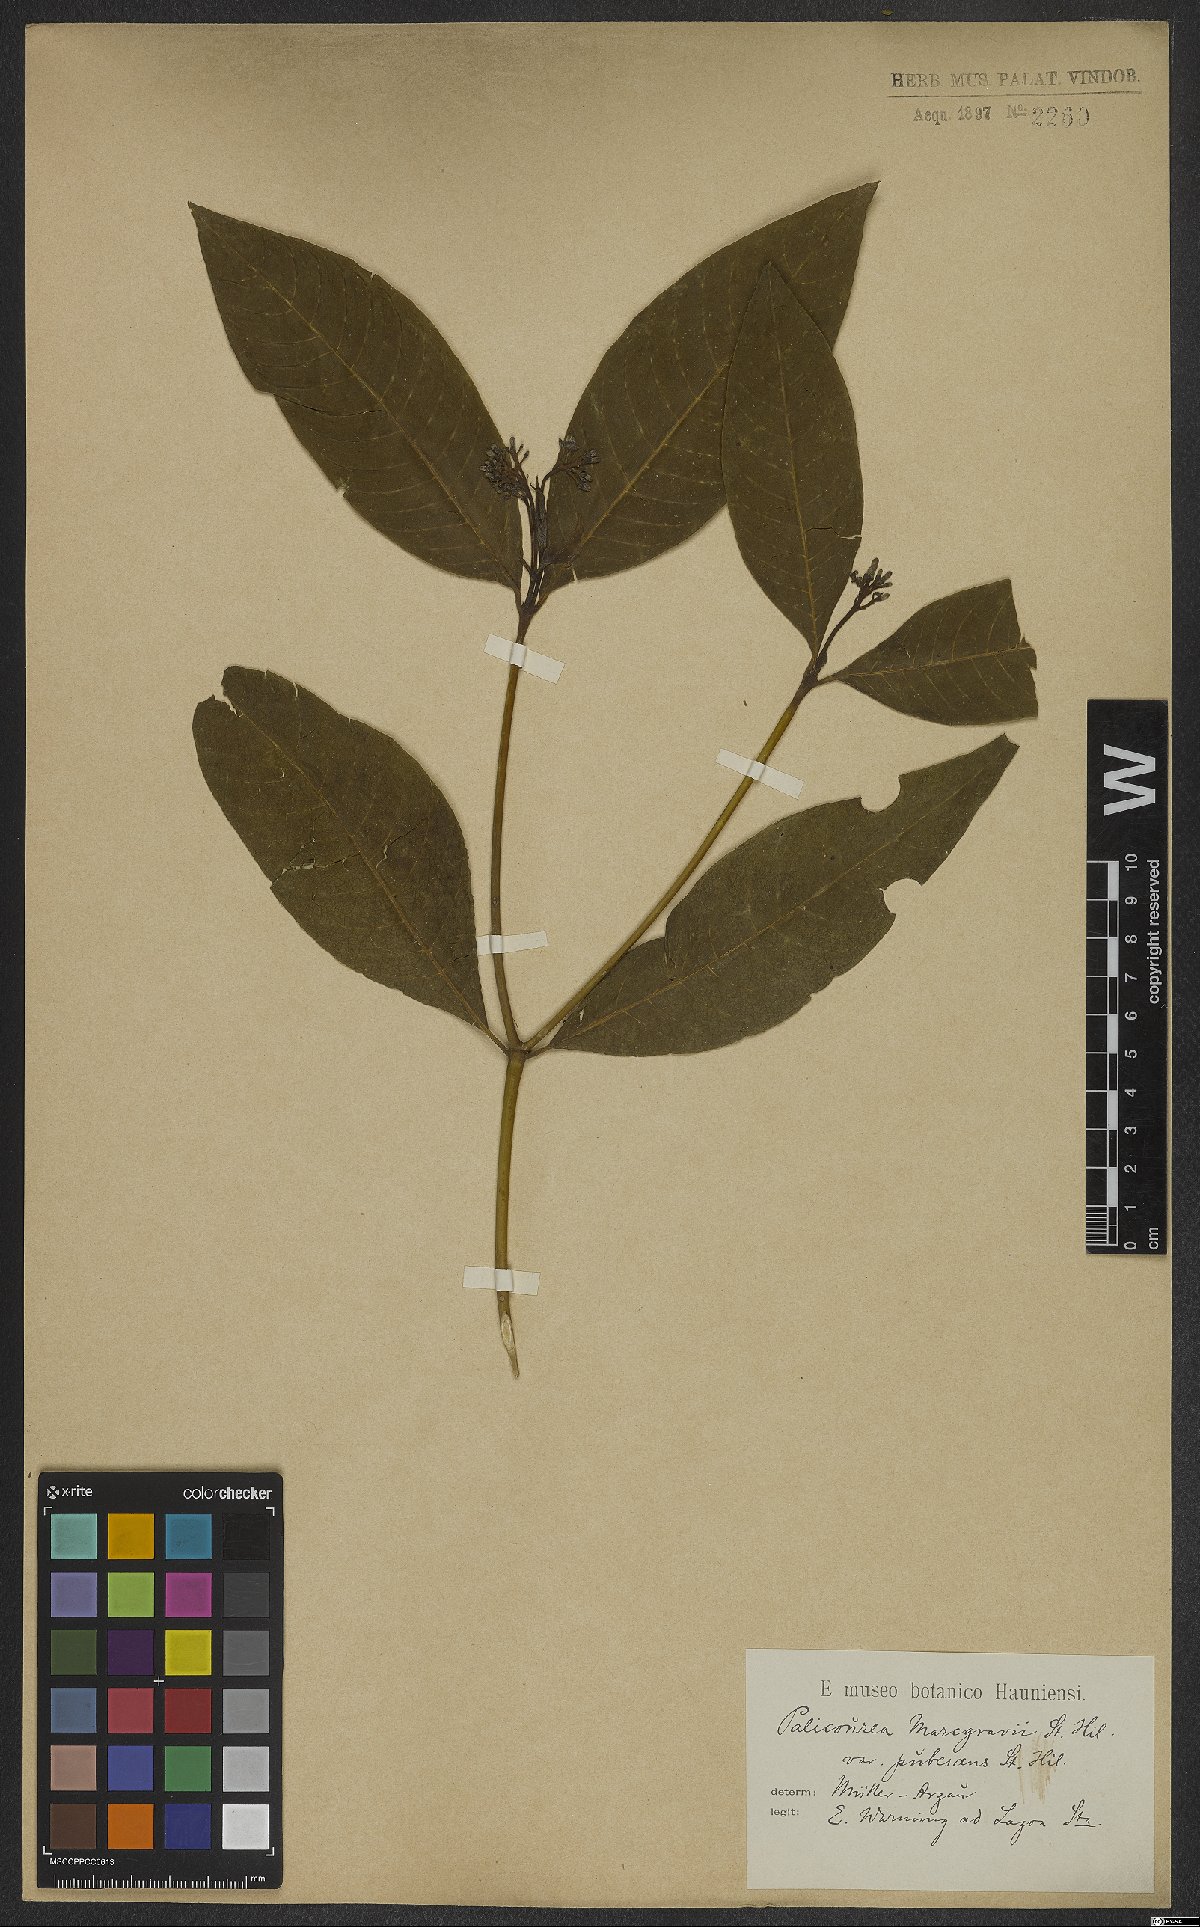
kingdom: Plantae
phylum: Tracheophyta
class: Magnoliopsida
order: Gentianales
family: Rubiaceae
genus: Palicourea
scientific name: Palicourea marcgravii
